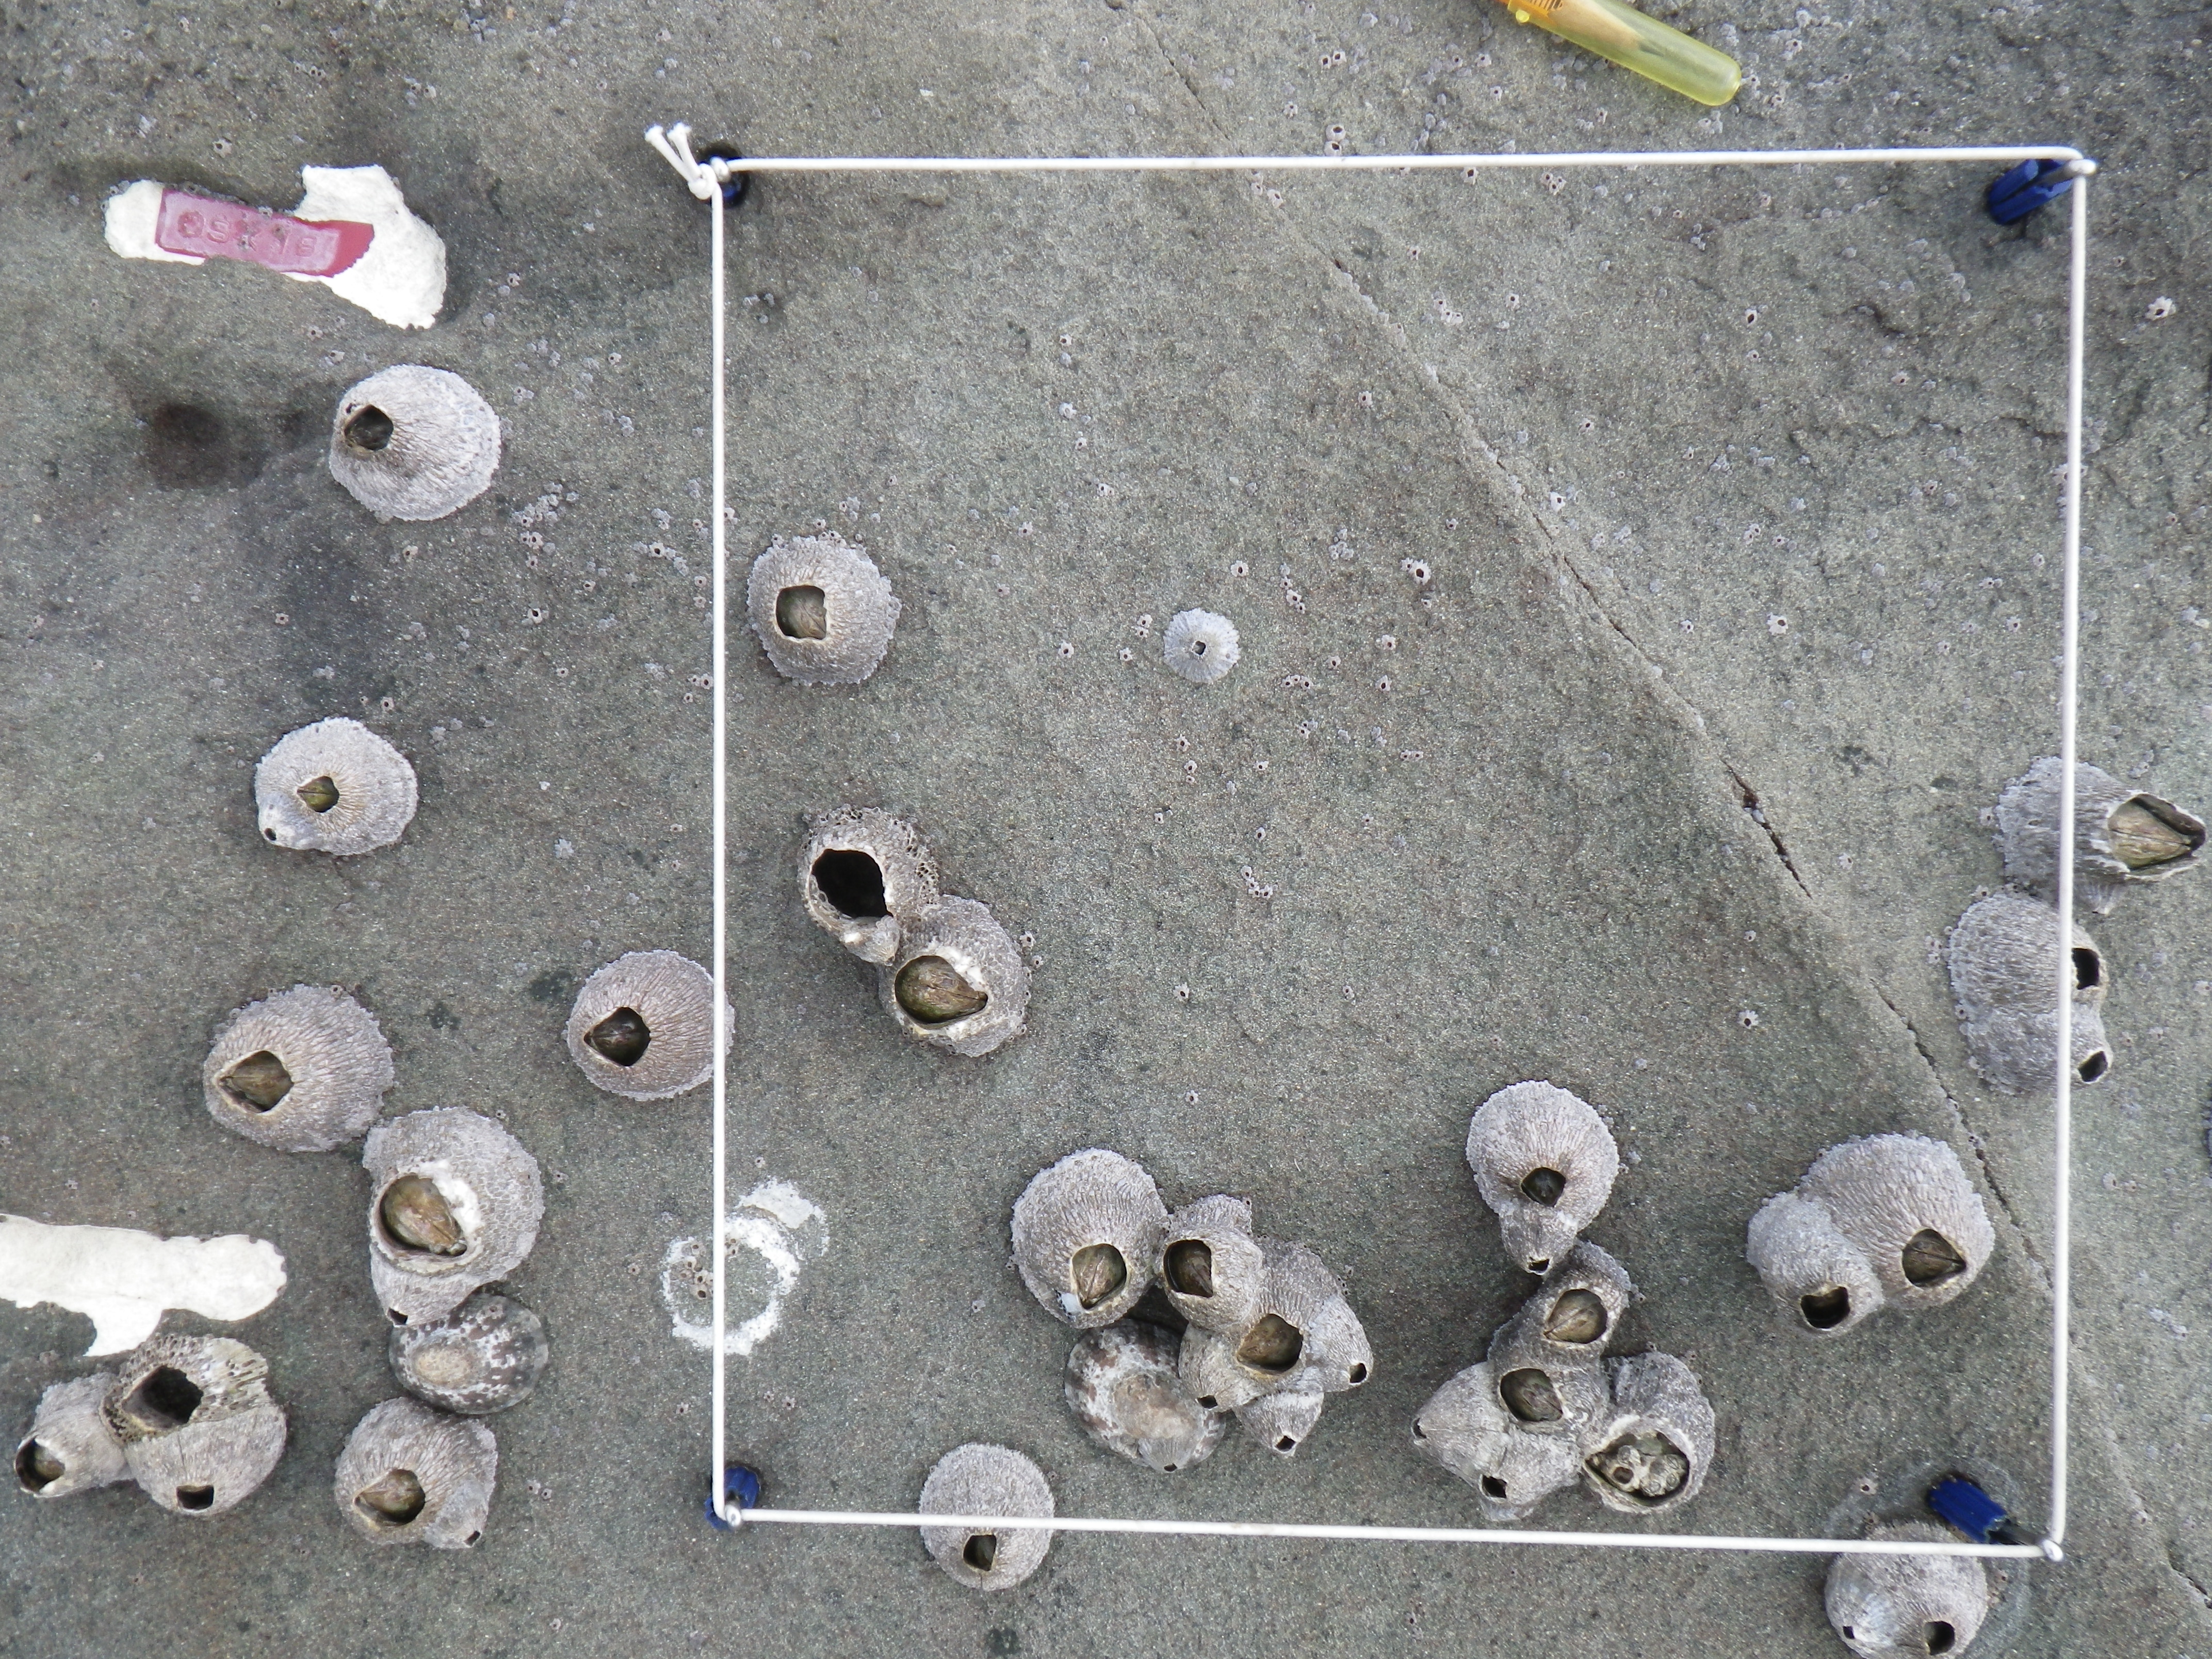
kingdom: Animalia
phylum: Arthropoda
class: Maxillopoda
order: Sessilia
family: Chthamalidae
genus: Chthamalus
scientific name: Chthamalus challengeri
